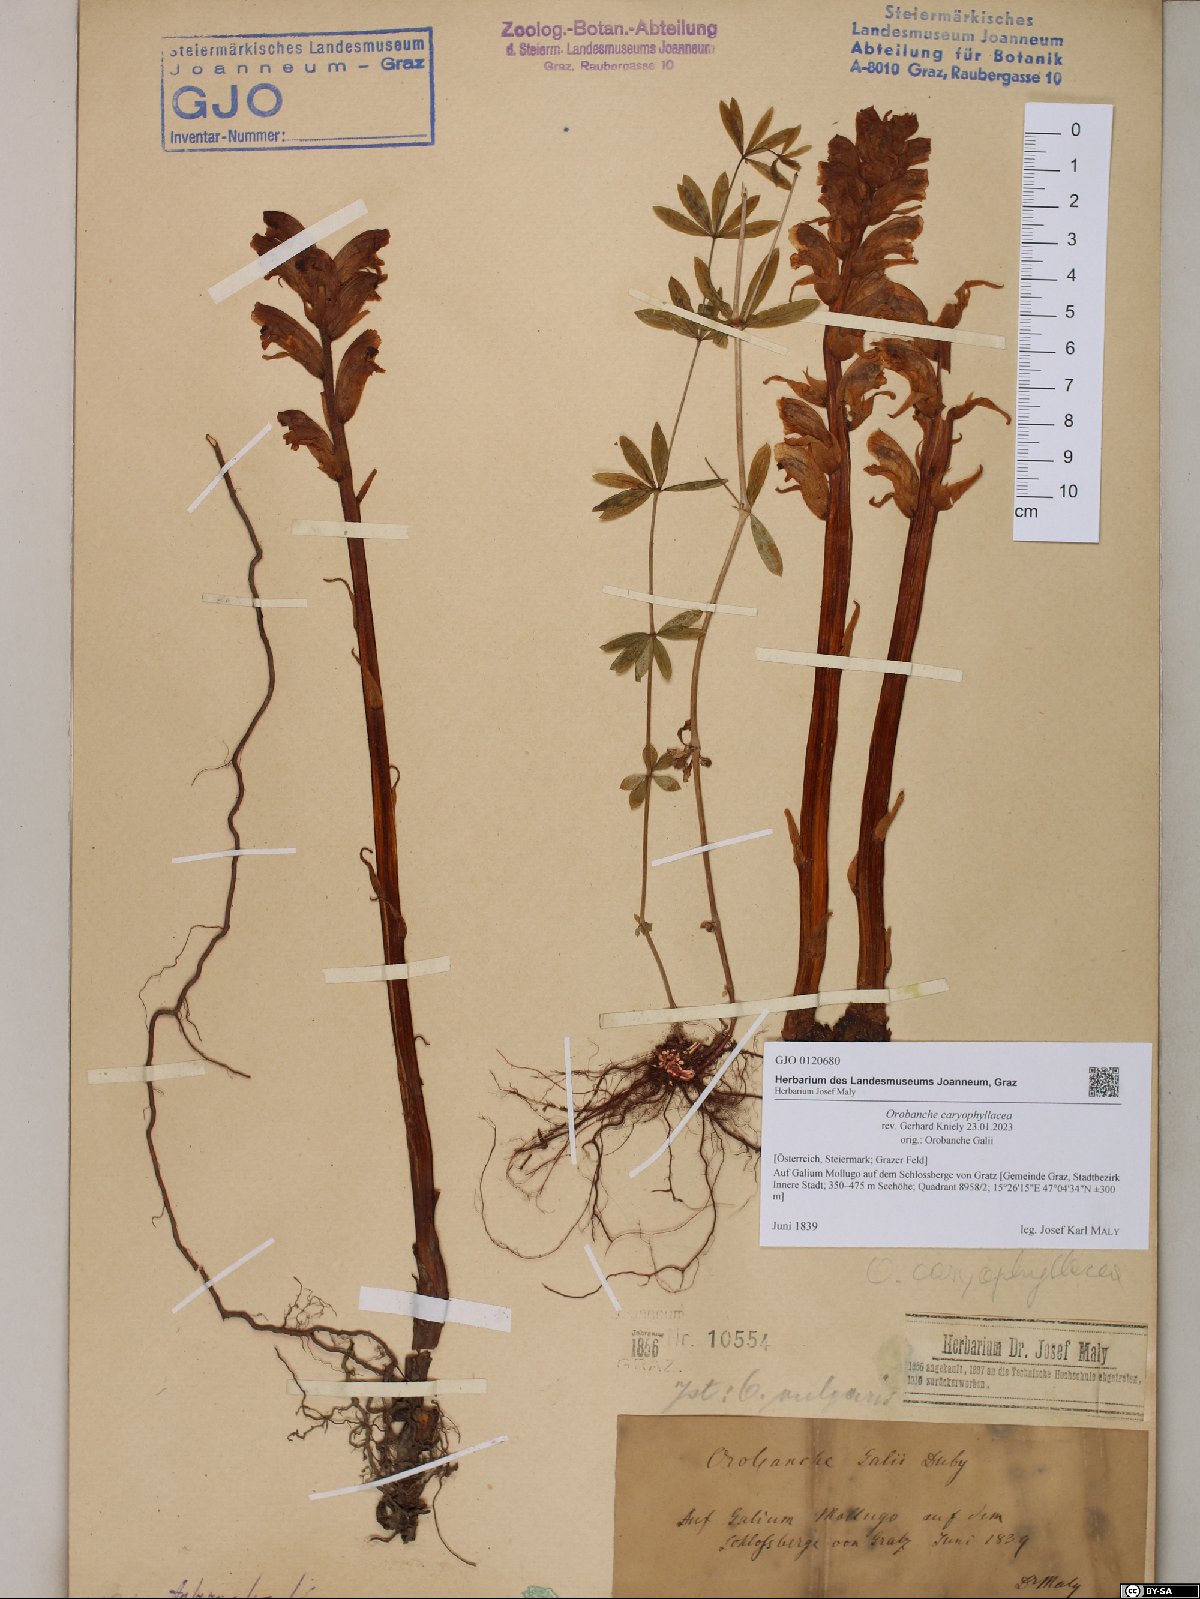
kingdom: Plantae
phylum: Tracheophyta
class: Magnoliopsida
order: Lamiales
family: Orobanchaceae
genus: Orobanche
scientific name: Orobanche caryophyllacea
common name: Bedstraw broomrape
